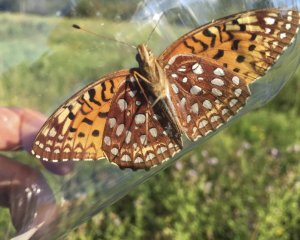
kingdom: Animalia
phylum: Arthropoda
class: Insecta
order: Lepidoptera
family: Nymphalidae
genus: Speyeria
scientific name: Speyeria aphrodite
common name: Aphrodite Fritillary
